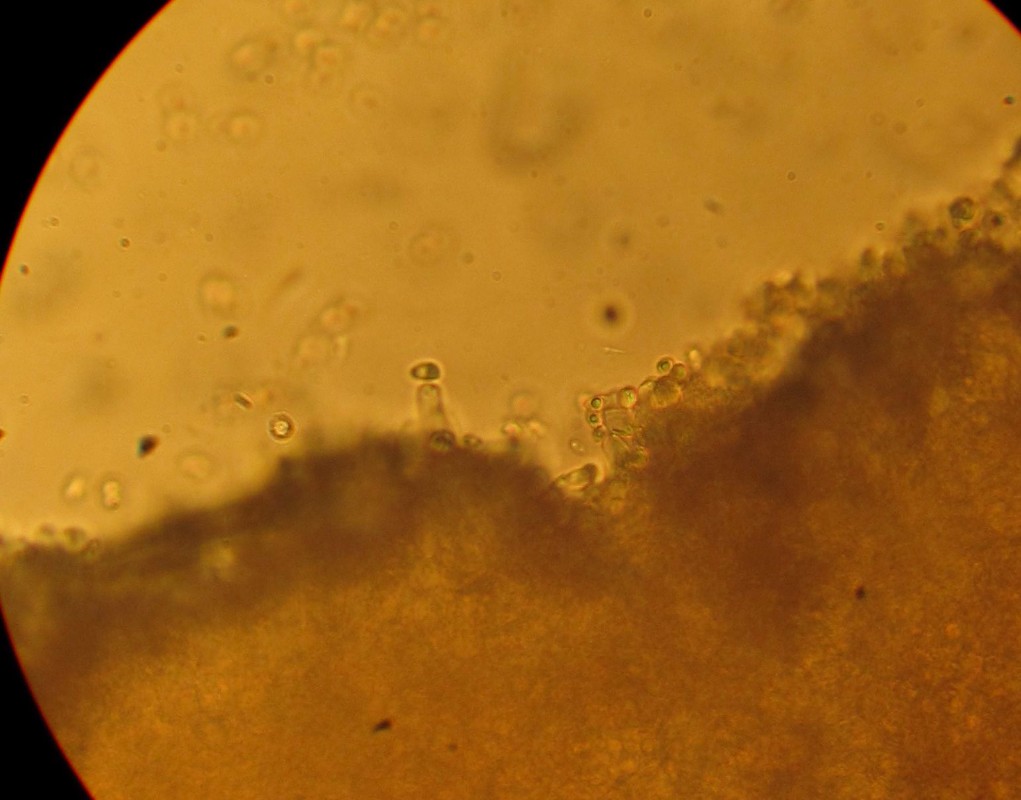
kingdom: Fungi
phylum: Basidiomycota
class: Agaricomycetes
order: Agaricales
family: Tubariaceae
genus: Tubaria
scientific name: Tubaria
